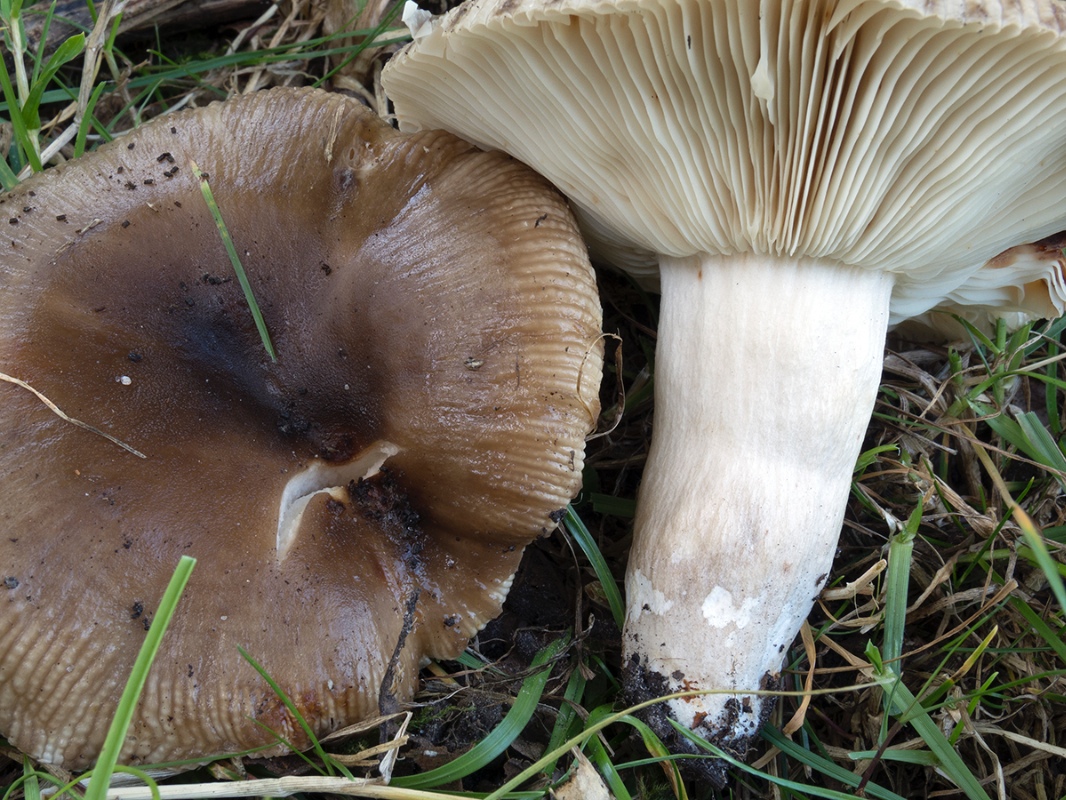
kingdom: Fungi
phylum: Basidiomycota
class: Agaricomycetes
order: Russulales
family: Russulaceae
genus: Russula
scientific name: Russula sororia
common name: brun kam-skørhat
